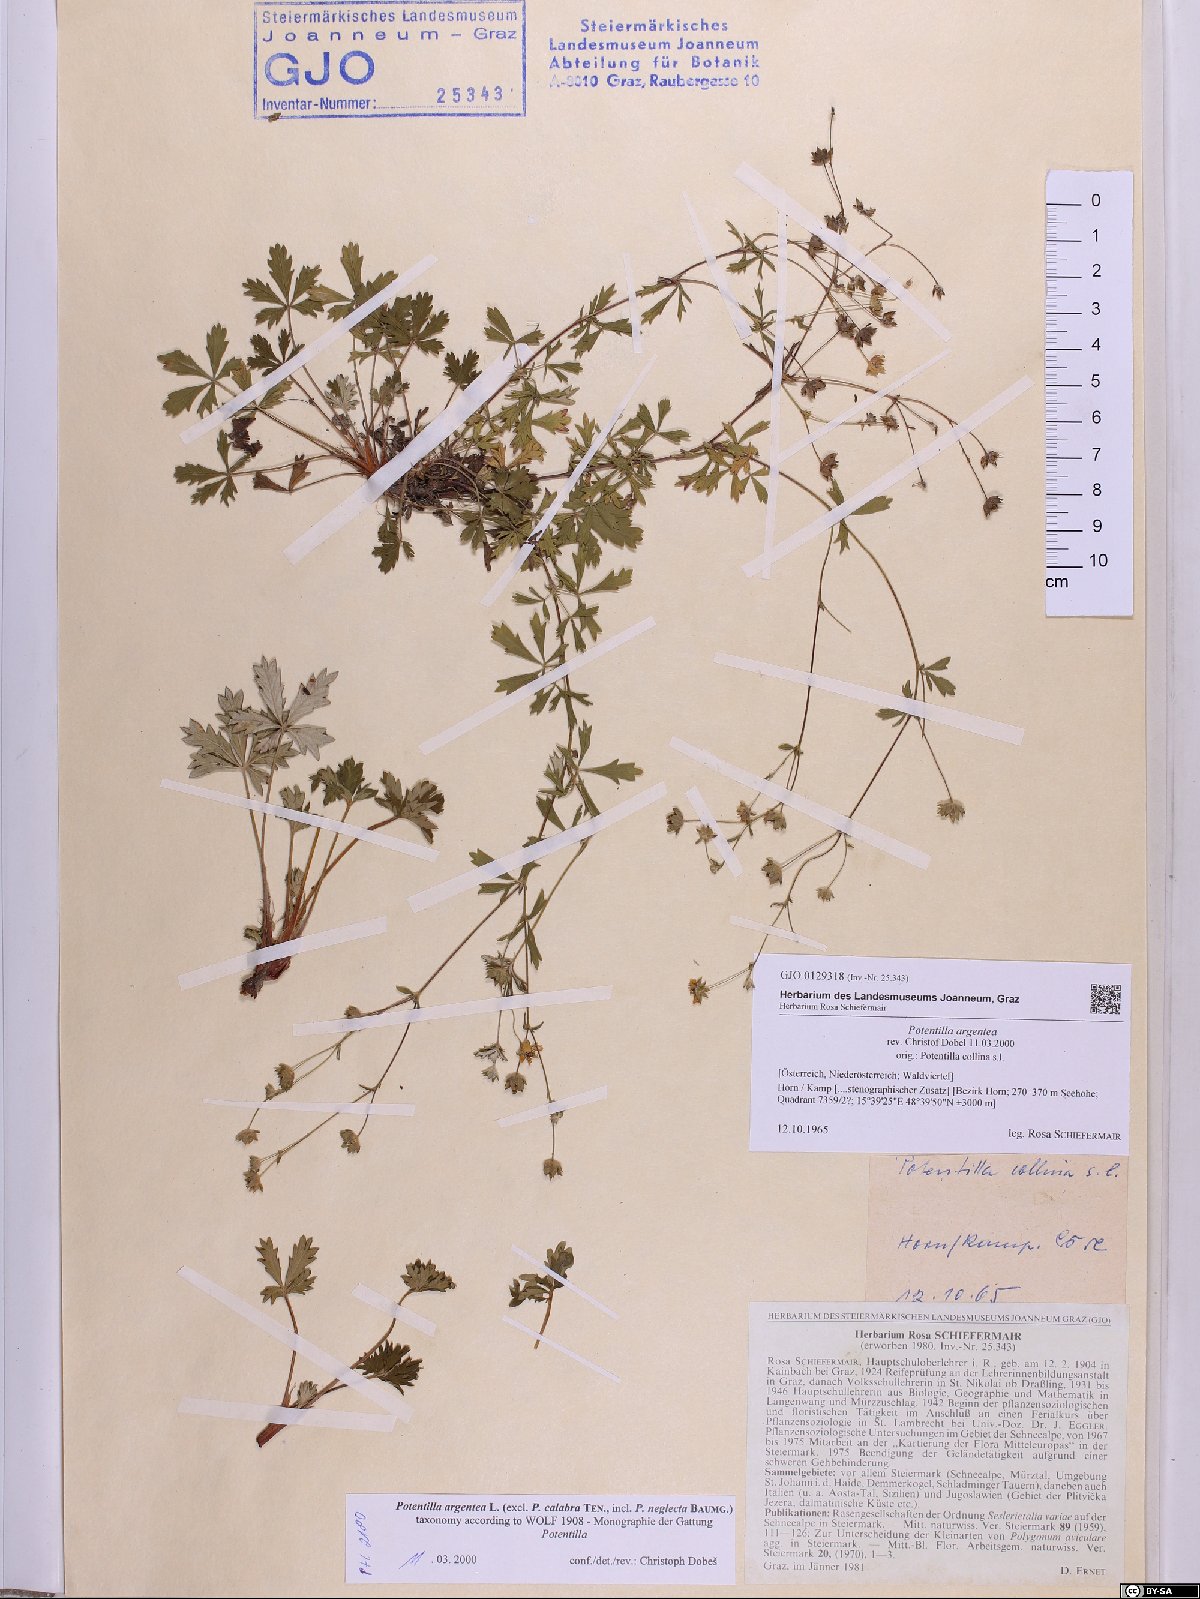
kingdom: Plantae
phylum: Tracheophyta
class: Magnoliopsida
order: Rosales
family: Rosaceae
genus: Potentilla
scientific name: Potentilla argentea
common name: Hoary cinquefoil
